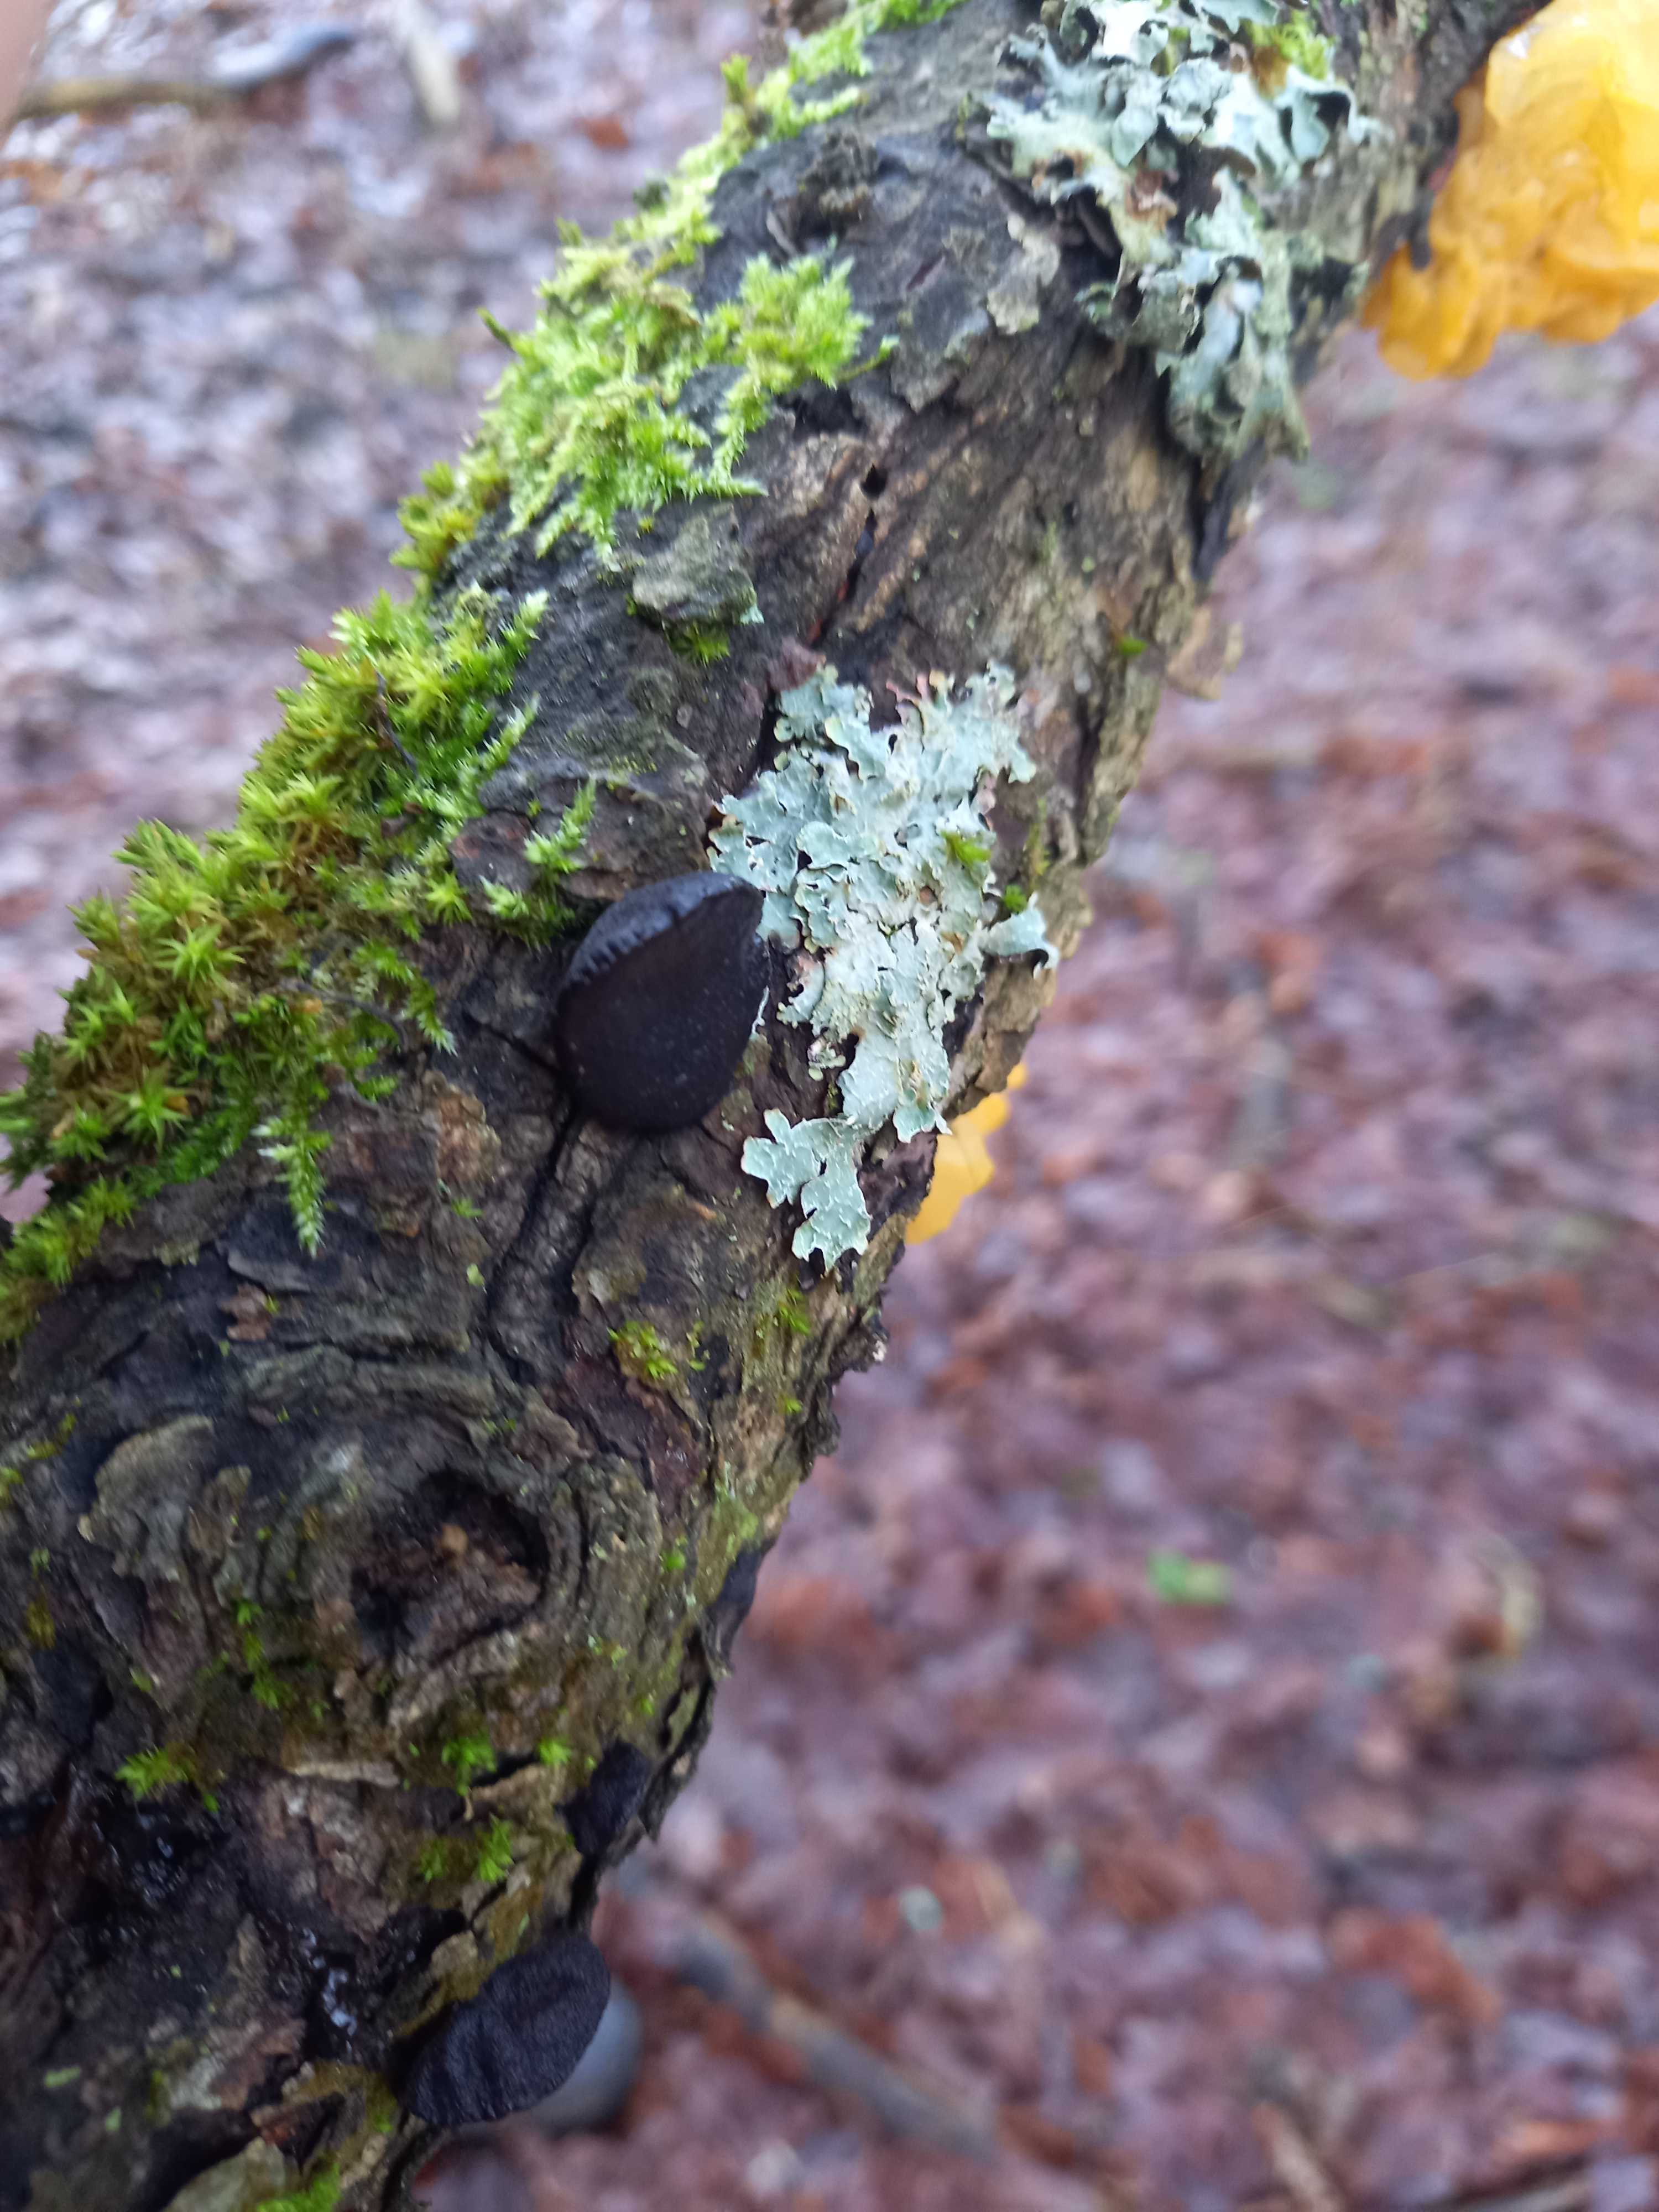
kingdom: Fungi
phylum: Basidiomycota
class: Agaricomycetes
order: Auriculariales
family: Auriculariaceae
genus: Exidia
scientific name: Exidia glandulosa
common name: ege-bævretop
